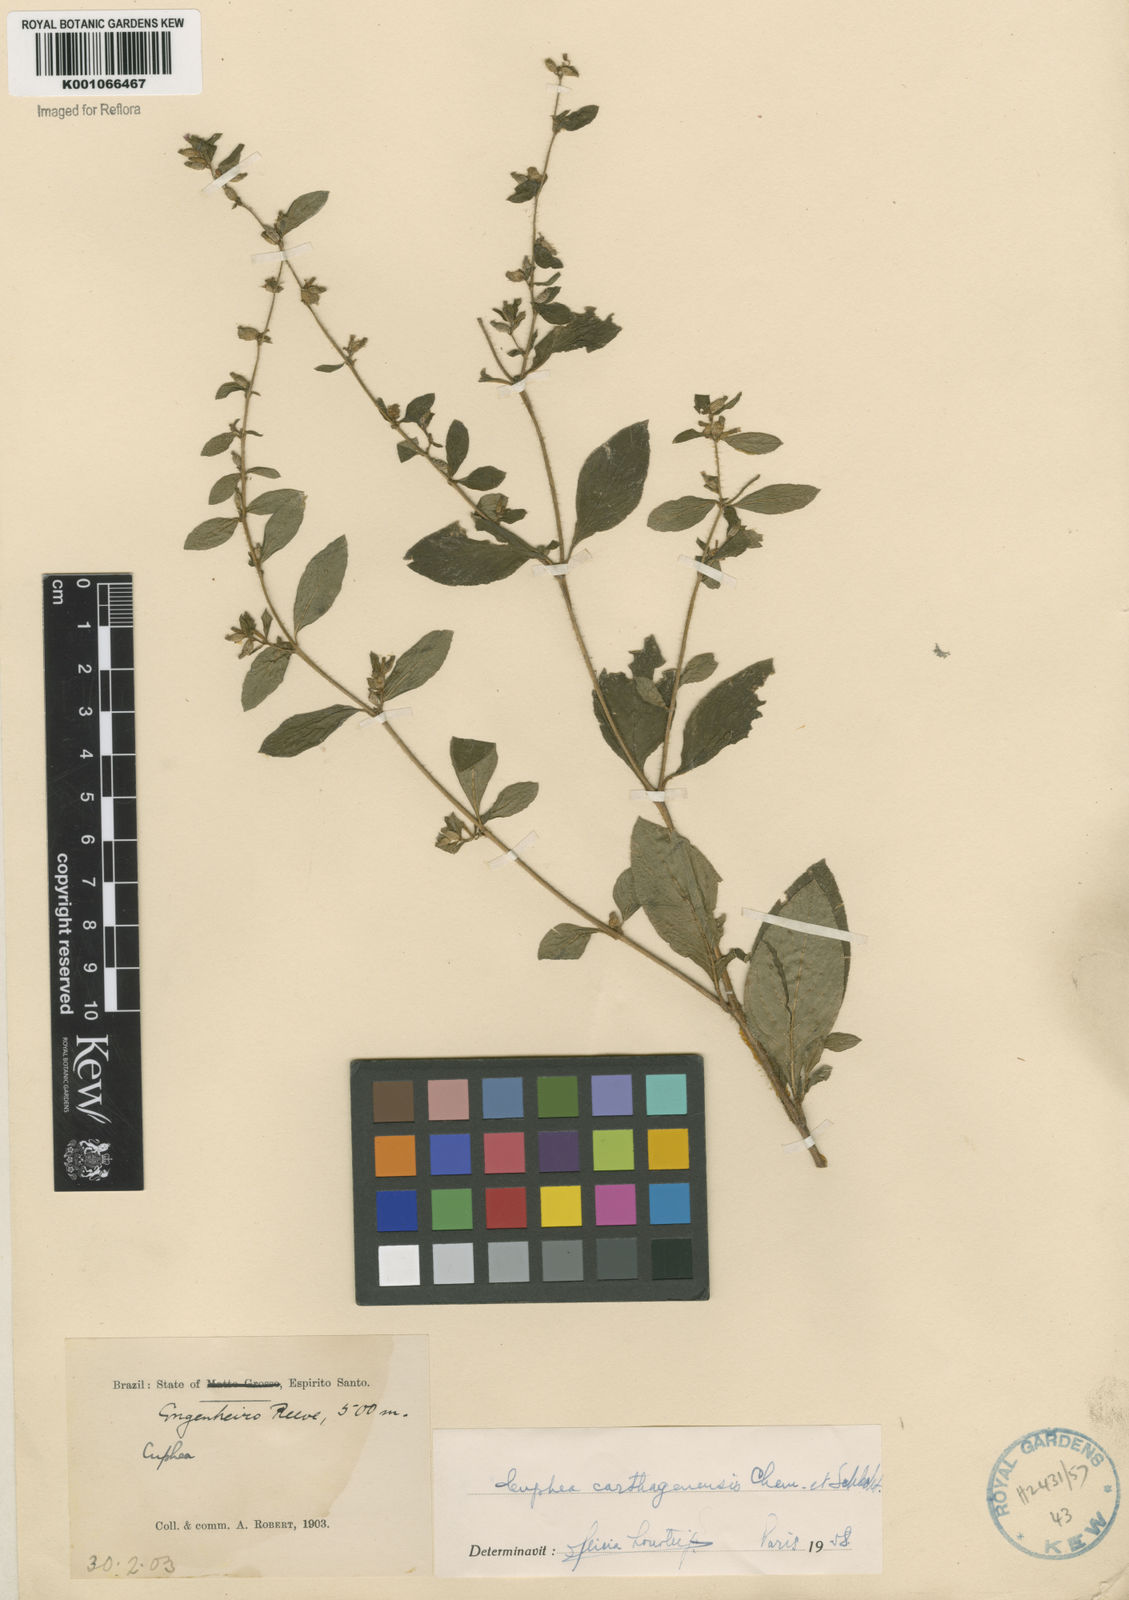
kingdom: Plantae
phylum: Tracheophyta
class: Magnoliopsida
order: Myrtales
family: Lythraceae
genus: Cuphea
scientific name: Cuphea carthagenensis
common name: Colombian waxweed
